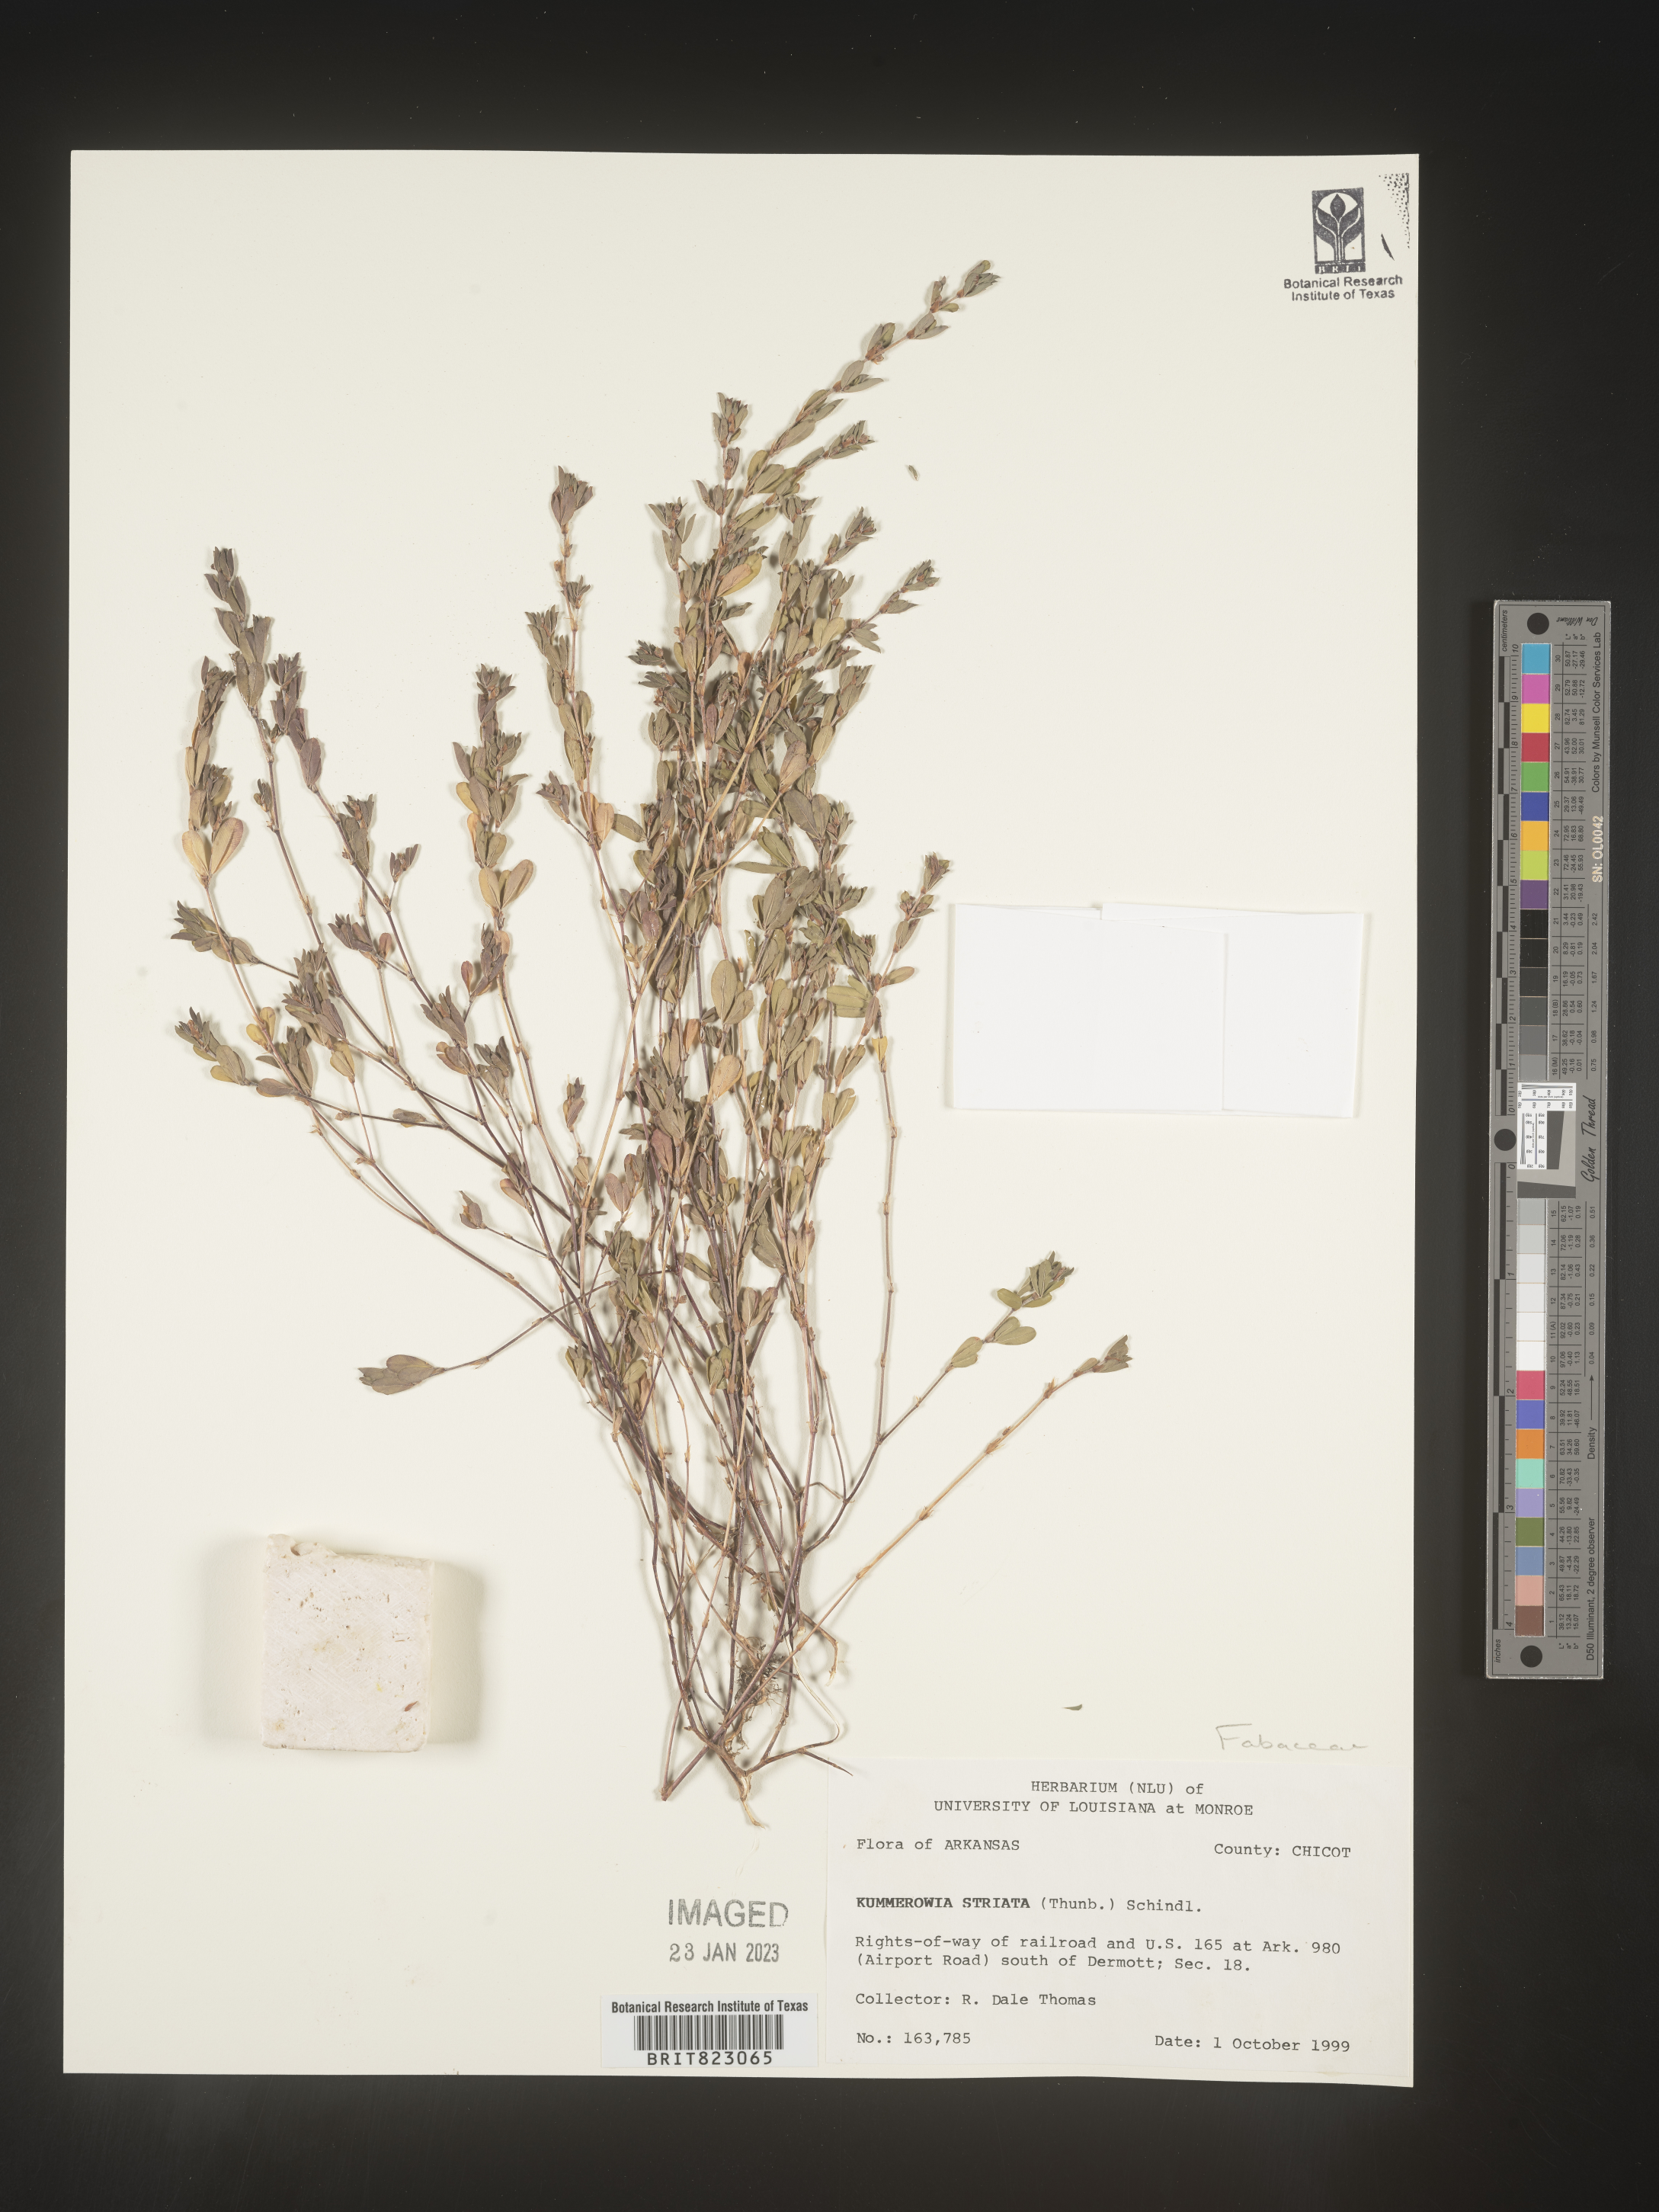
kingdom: Plantae
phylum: Tracheophyta
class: Magnoliopsida
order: Fabales
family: Fabaceae
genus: Kummerowia
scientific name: Kummerowia striata
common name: Japanese clover
